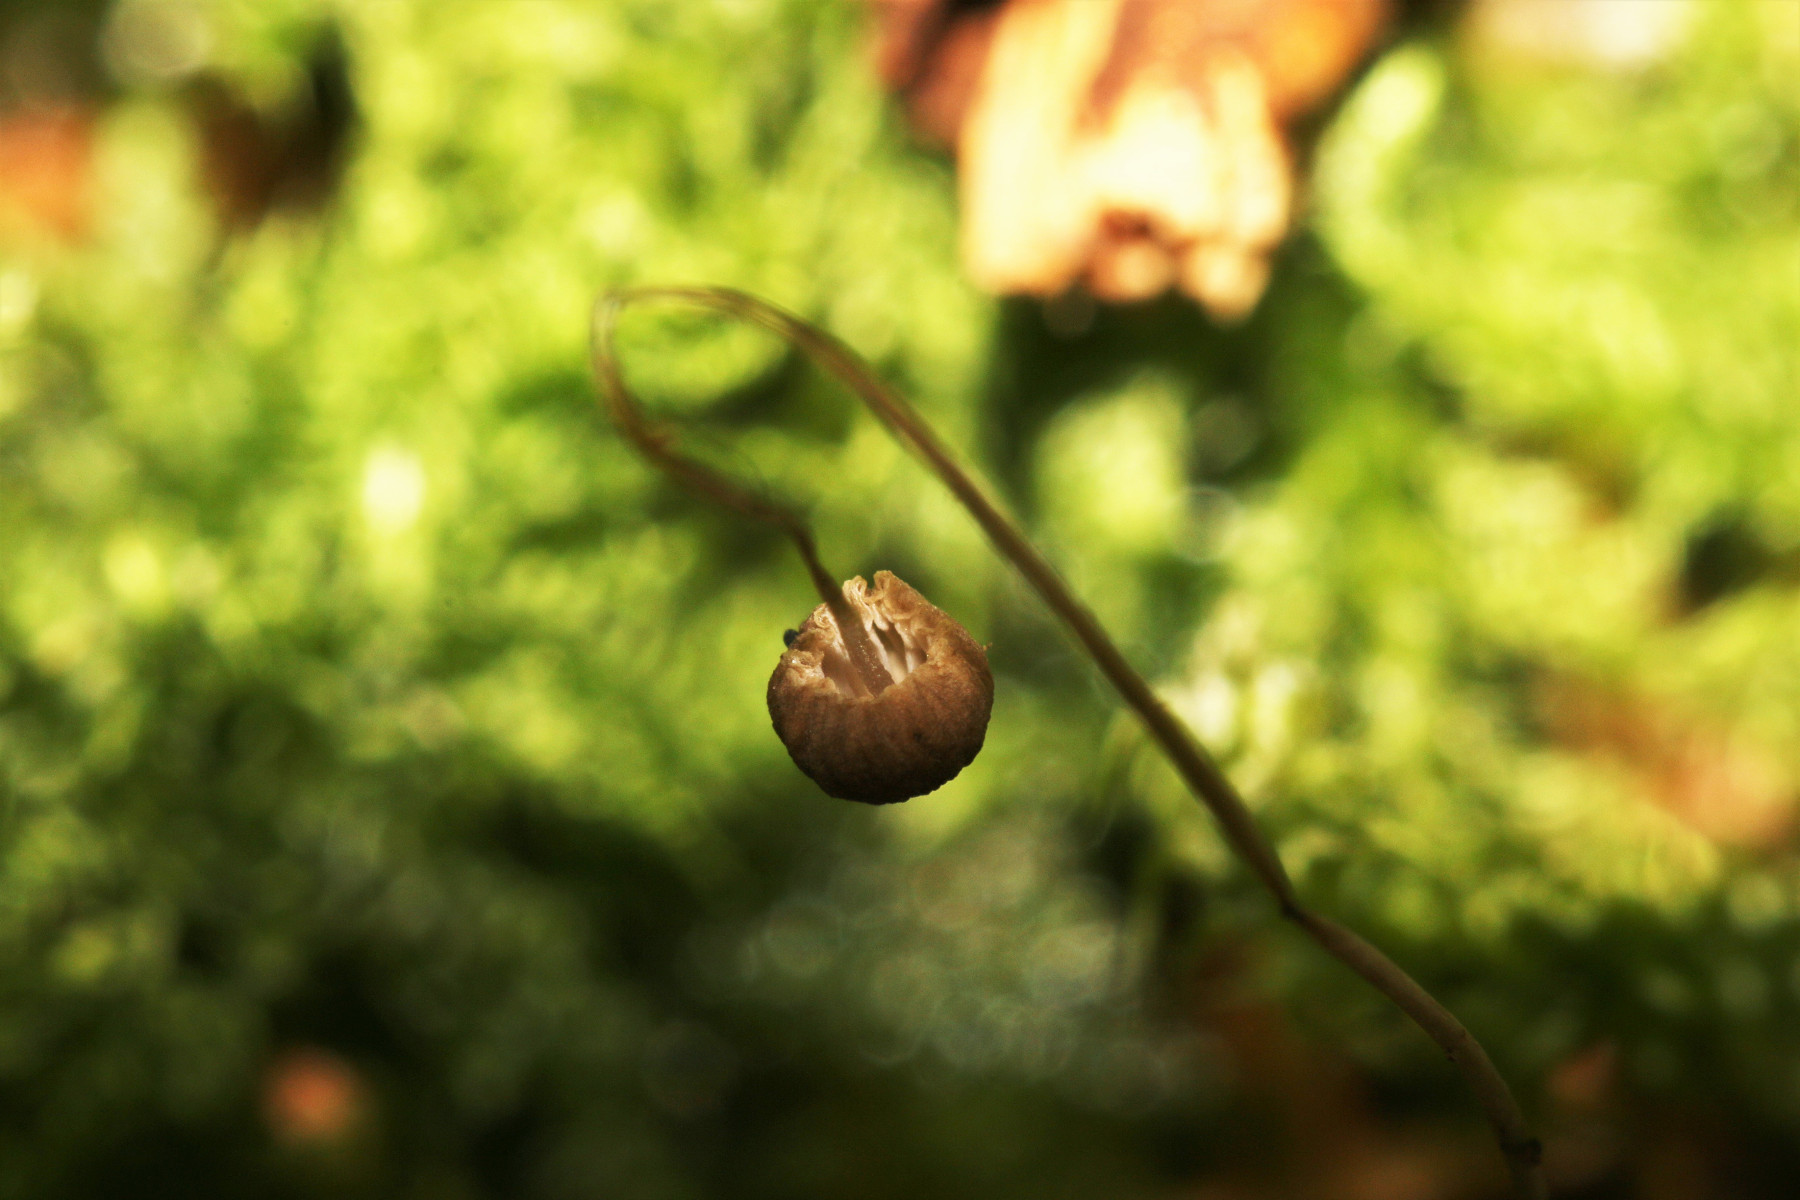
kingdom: Fungi
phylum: Basidiomycota
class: Agaricomycetes
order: Agaricales
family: Mycenaceae
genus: Mycena
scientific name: Mycena vitilis
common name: blankstokket huesvamp
